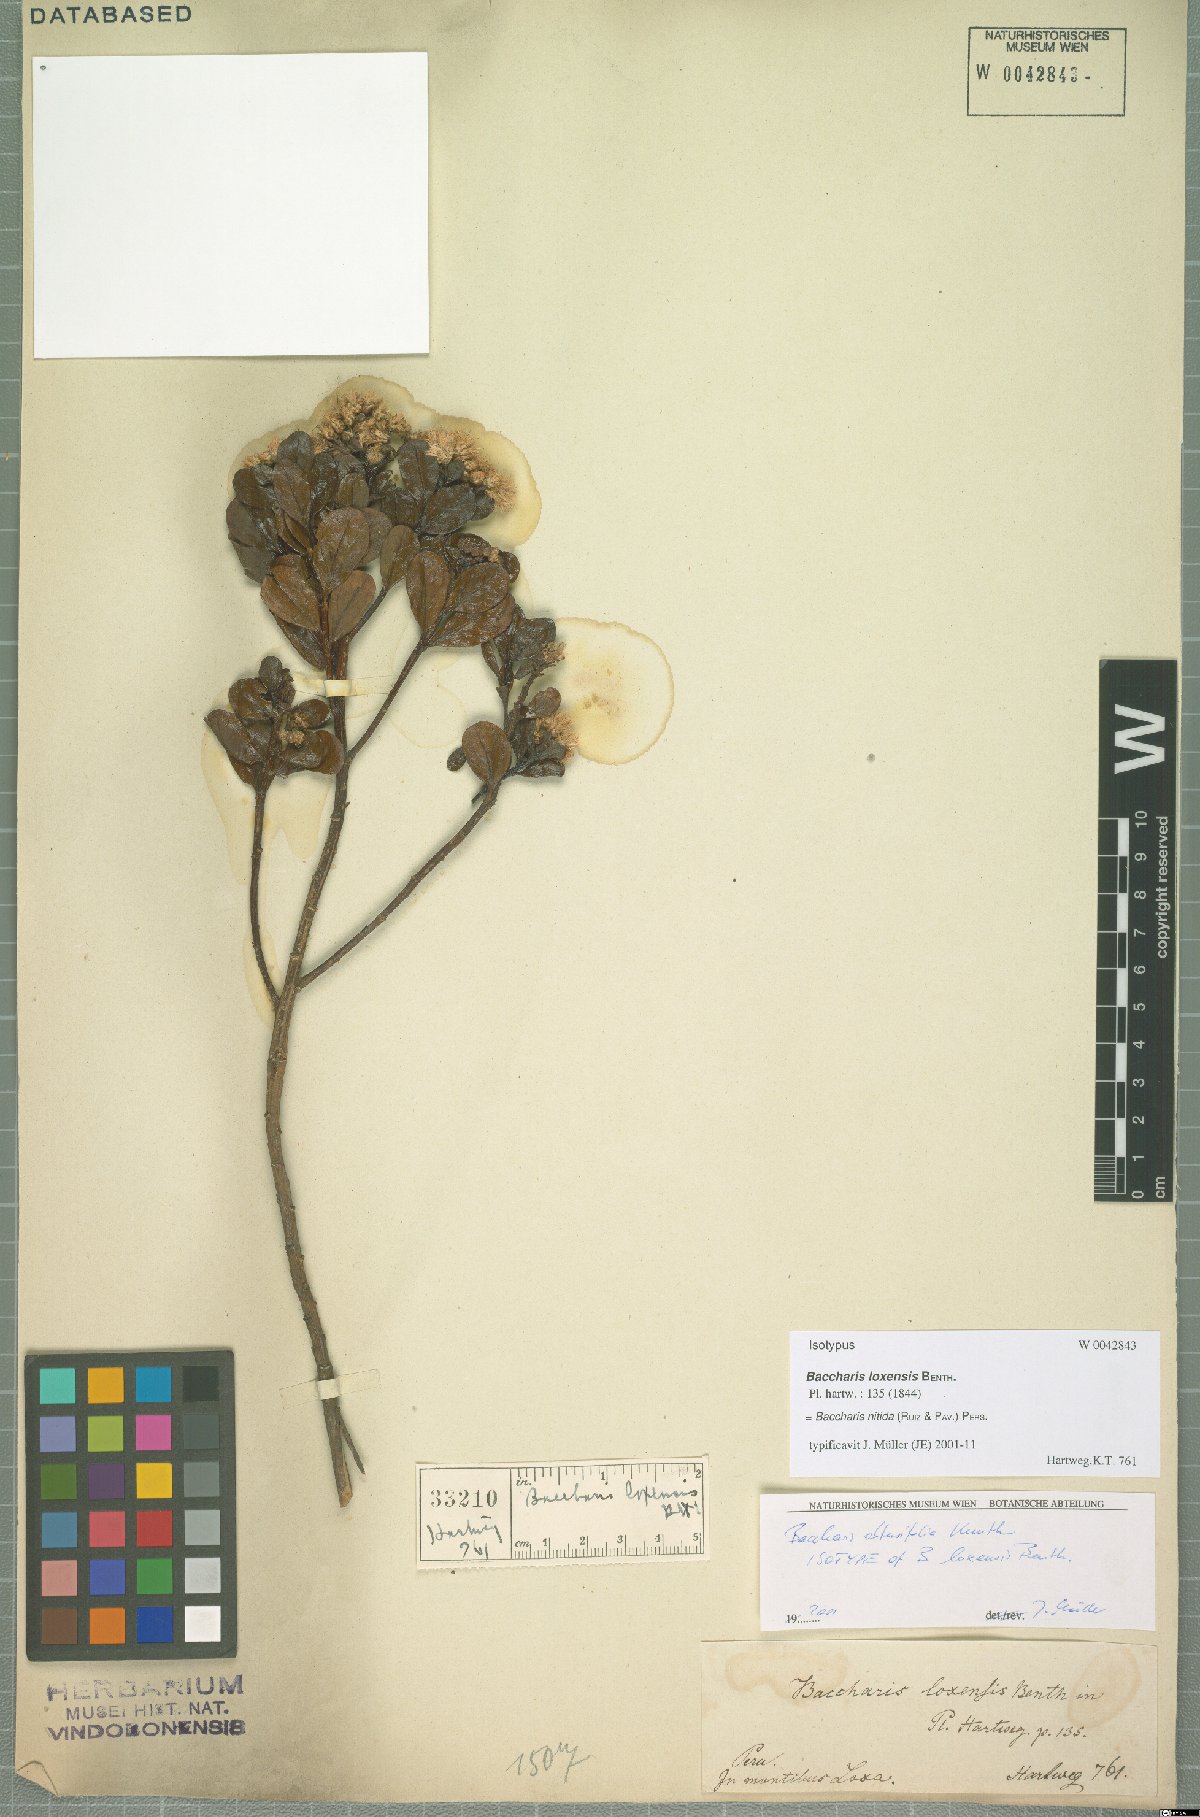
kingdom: Plantae
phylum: Tracheophyta
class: Magnoliopsida
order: Asterales
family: Asteraceae
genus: Baccharis
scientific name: Baccharis nitida
